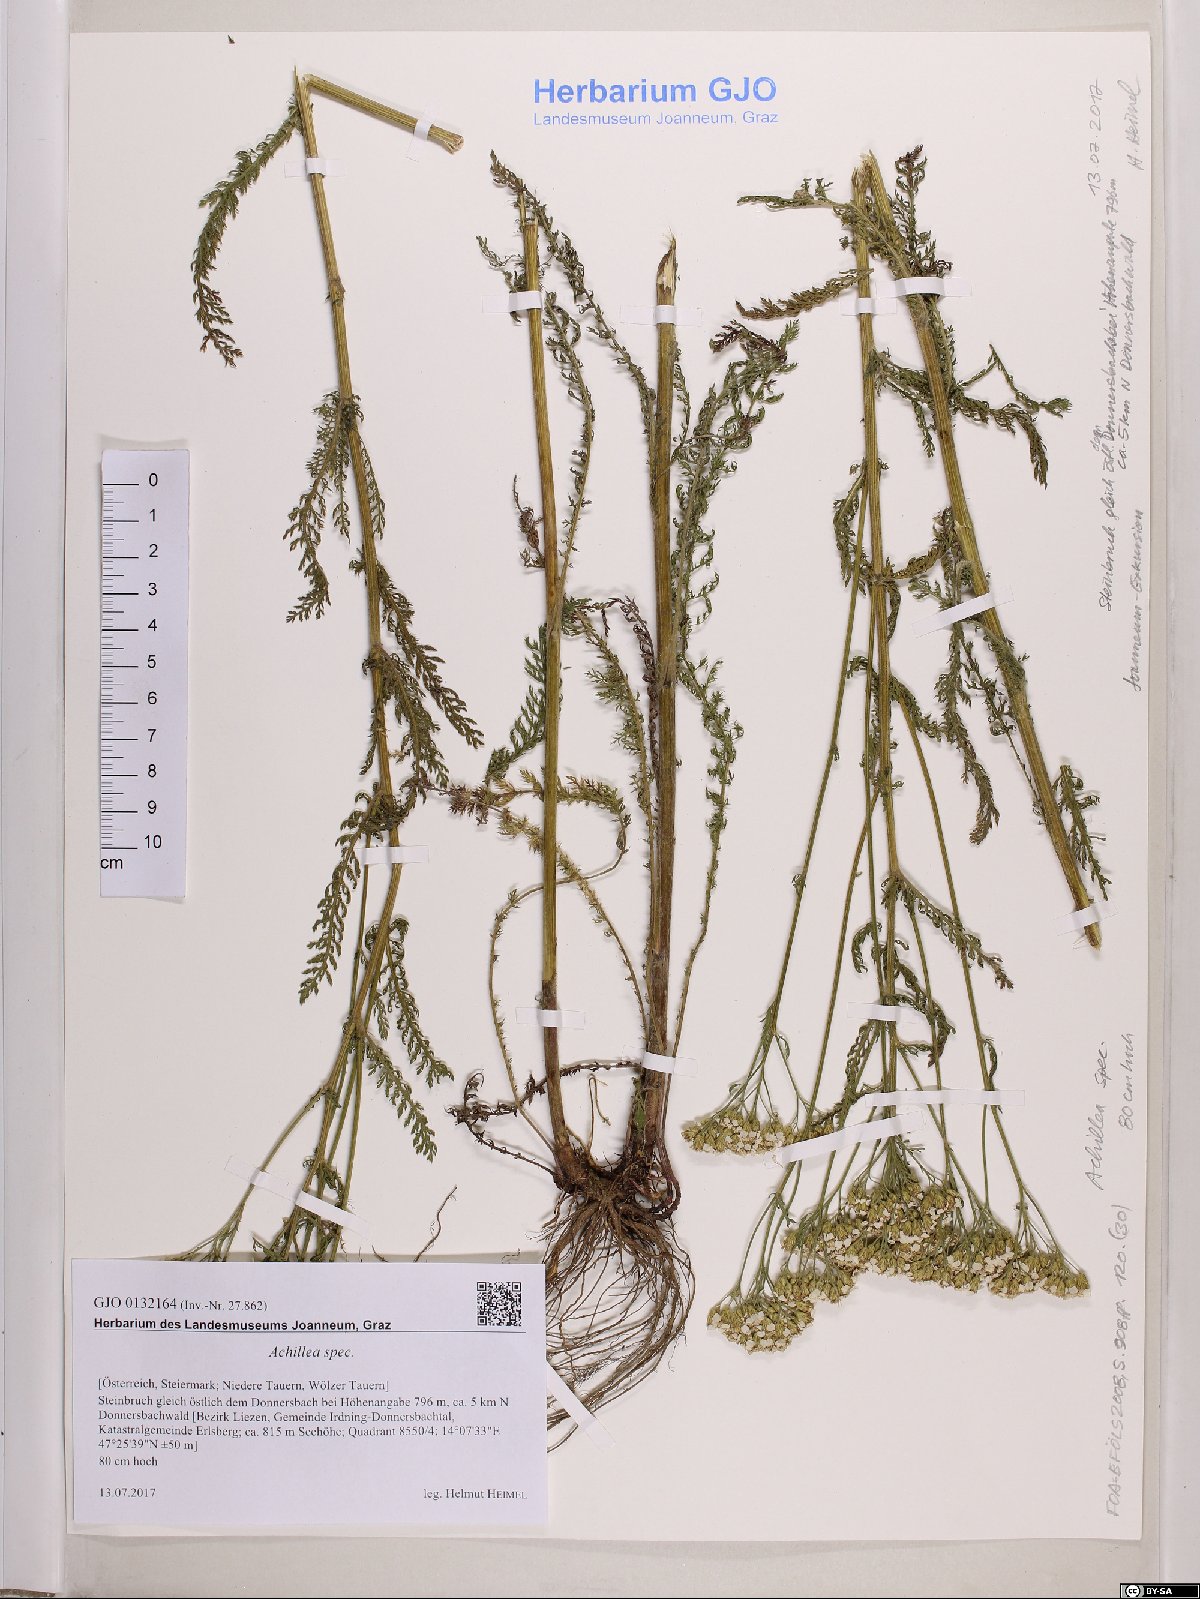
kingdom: Plantae
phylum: Tracheophyta
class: Magnoliopsida
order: Asterales
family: Asteraceae
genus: Achillea
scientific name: Achillea
